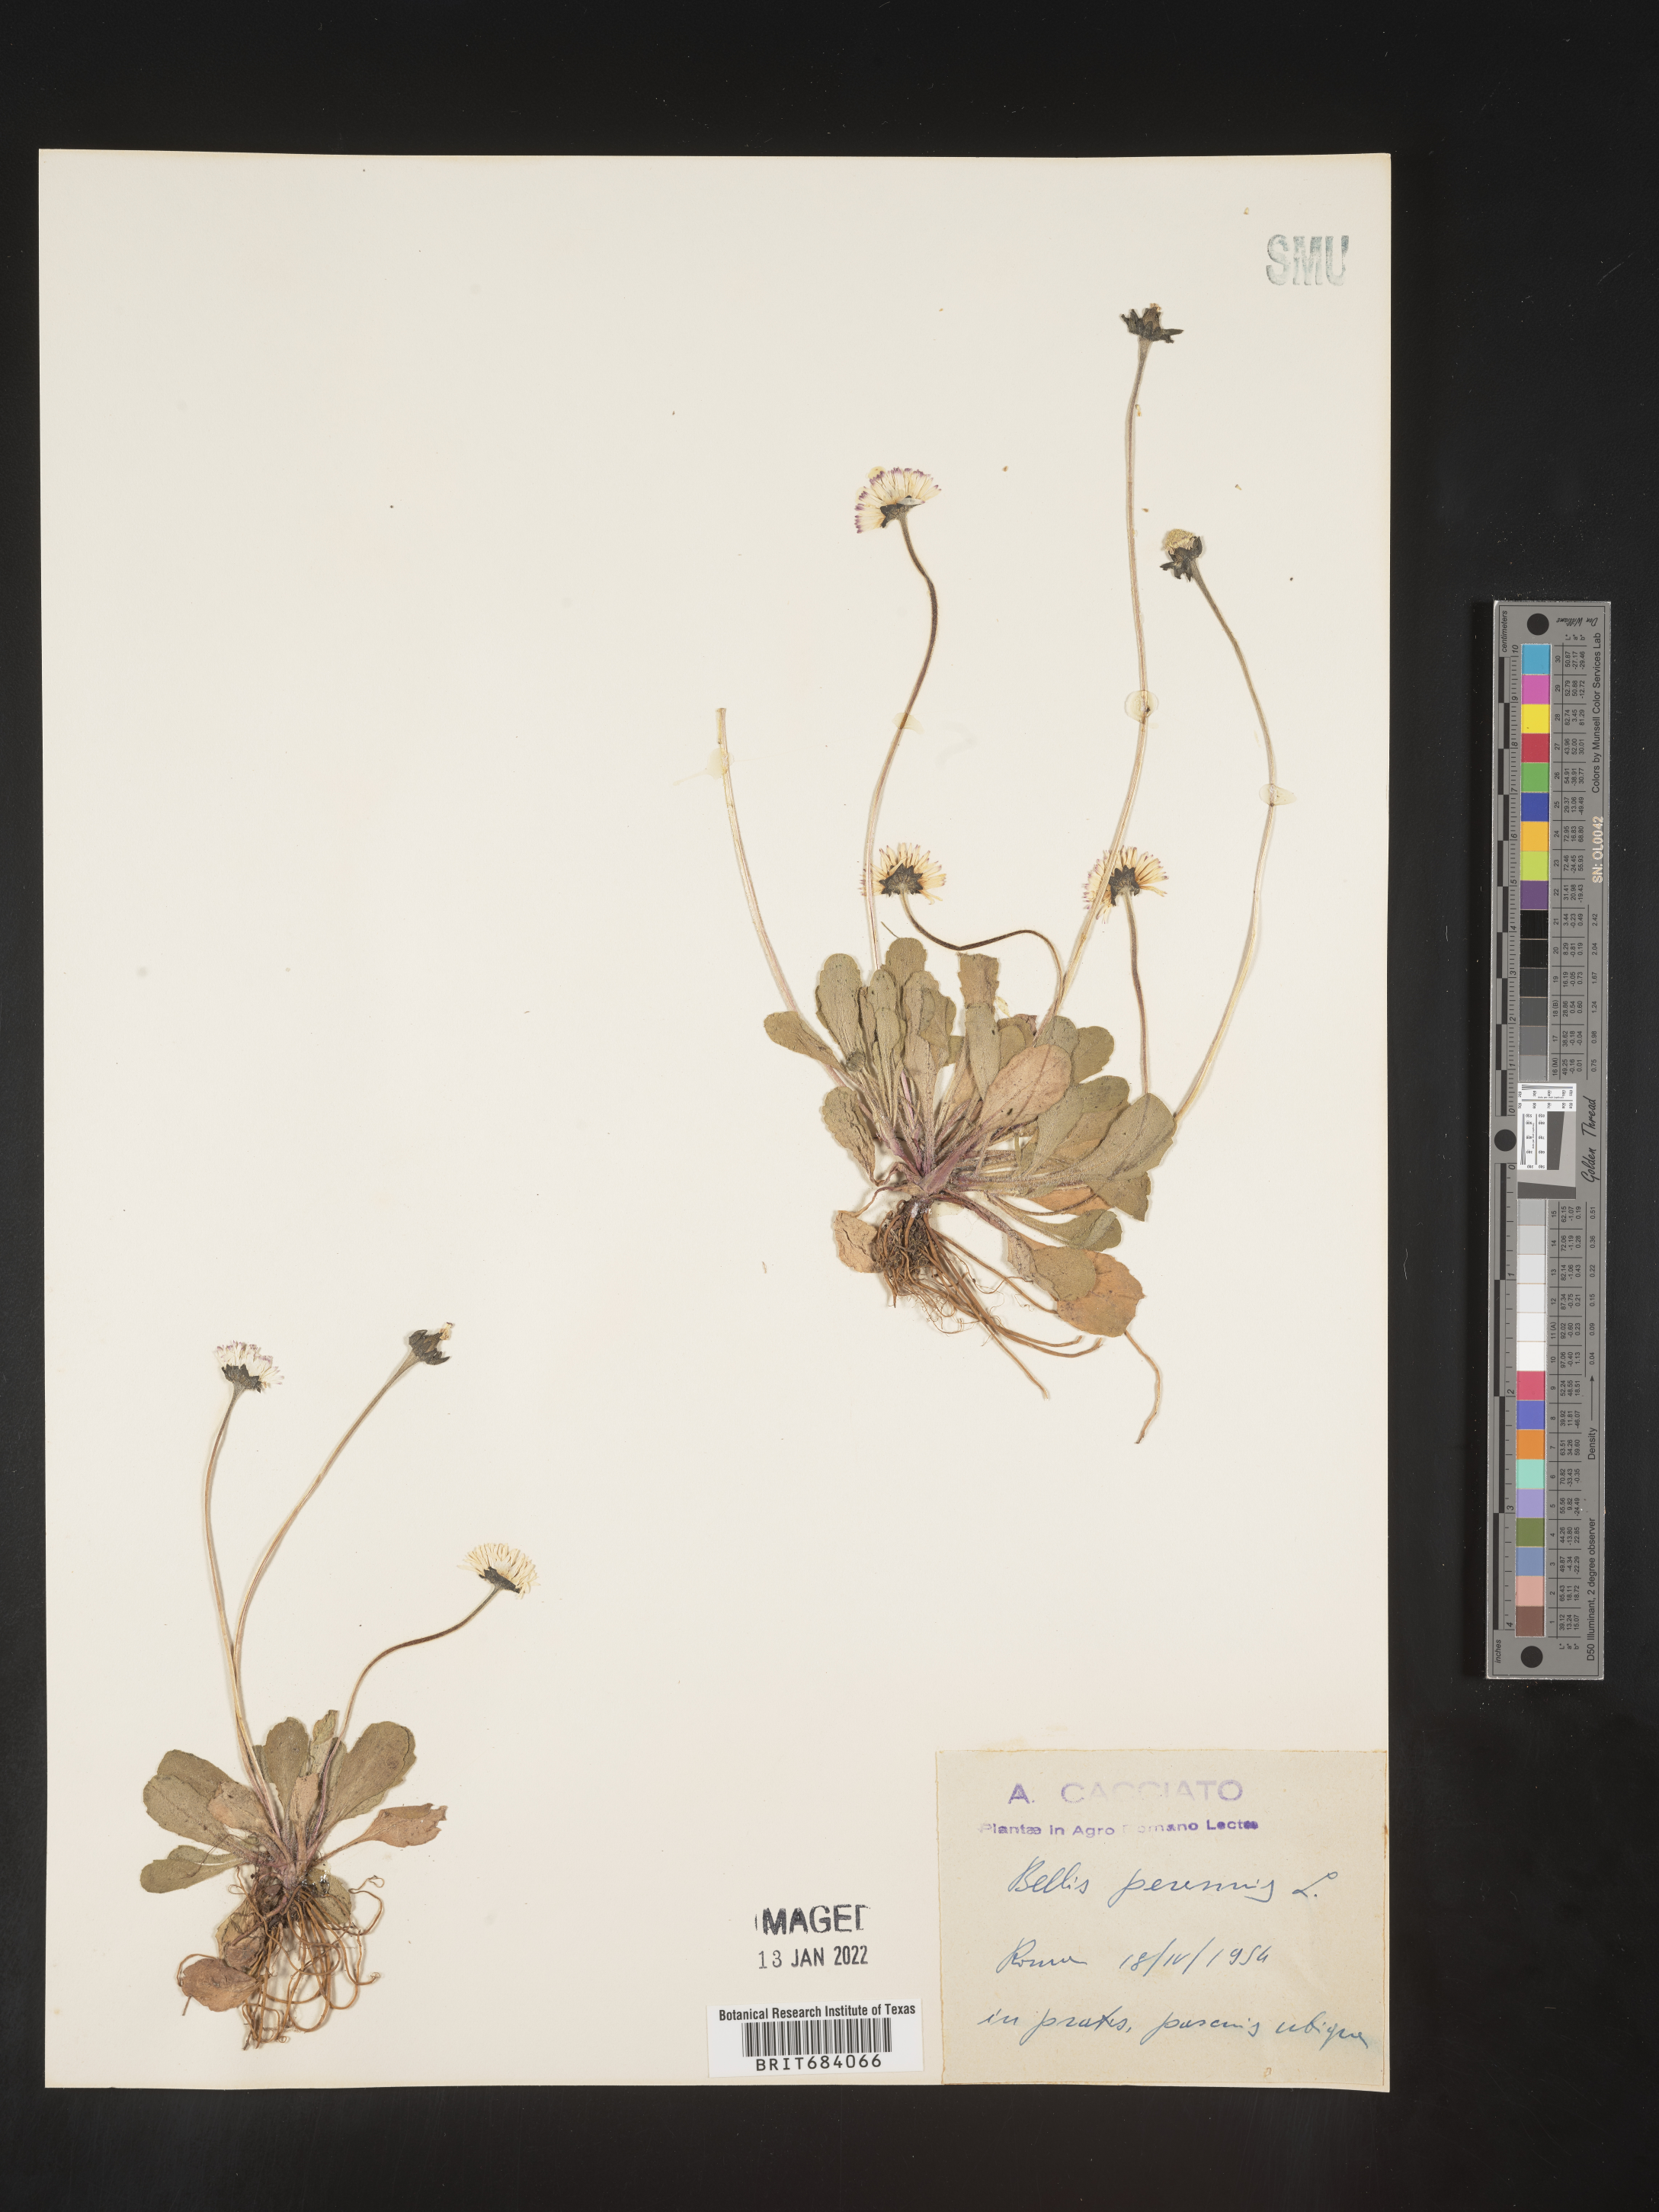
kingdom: Plantae
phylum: Tracheophyta
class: Magnoliopsida
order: Asterales
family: Asteraceae
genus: Bellis
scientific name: Bellis
